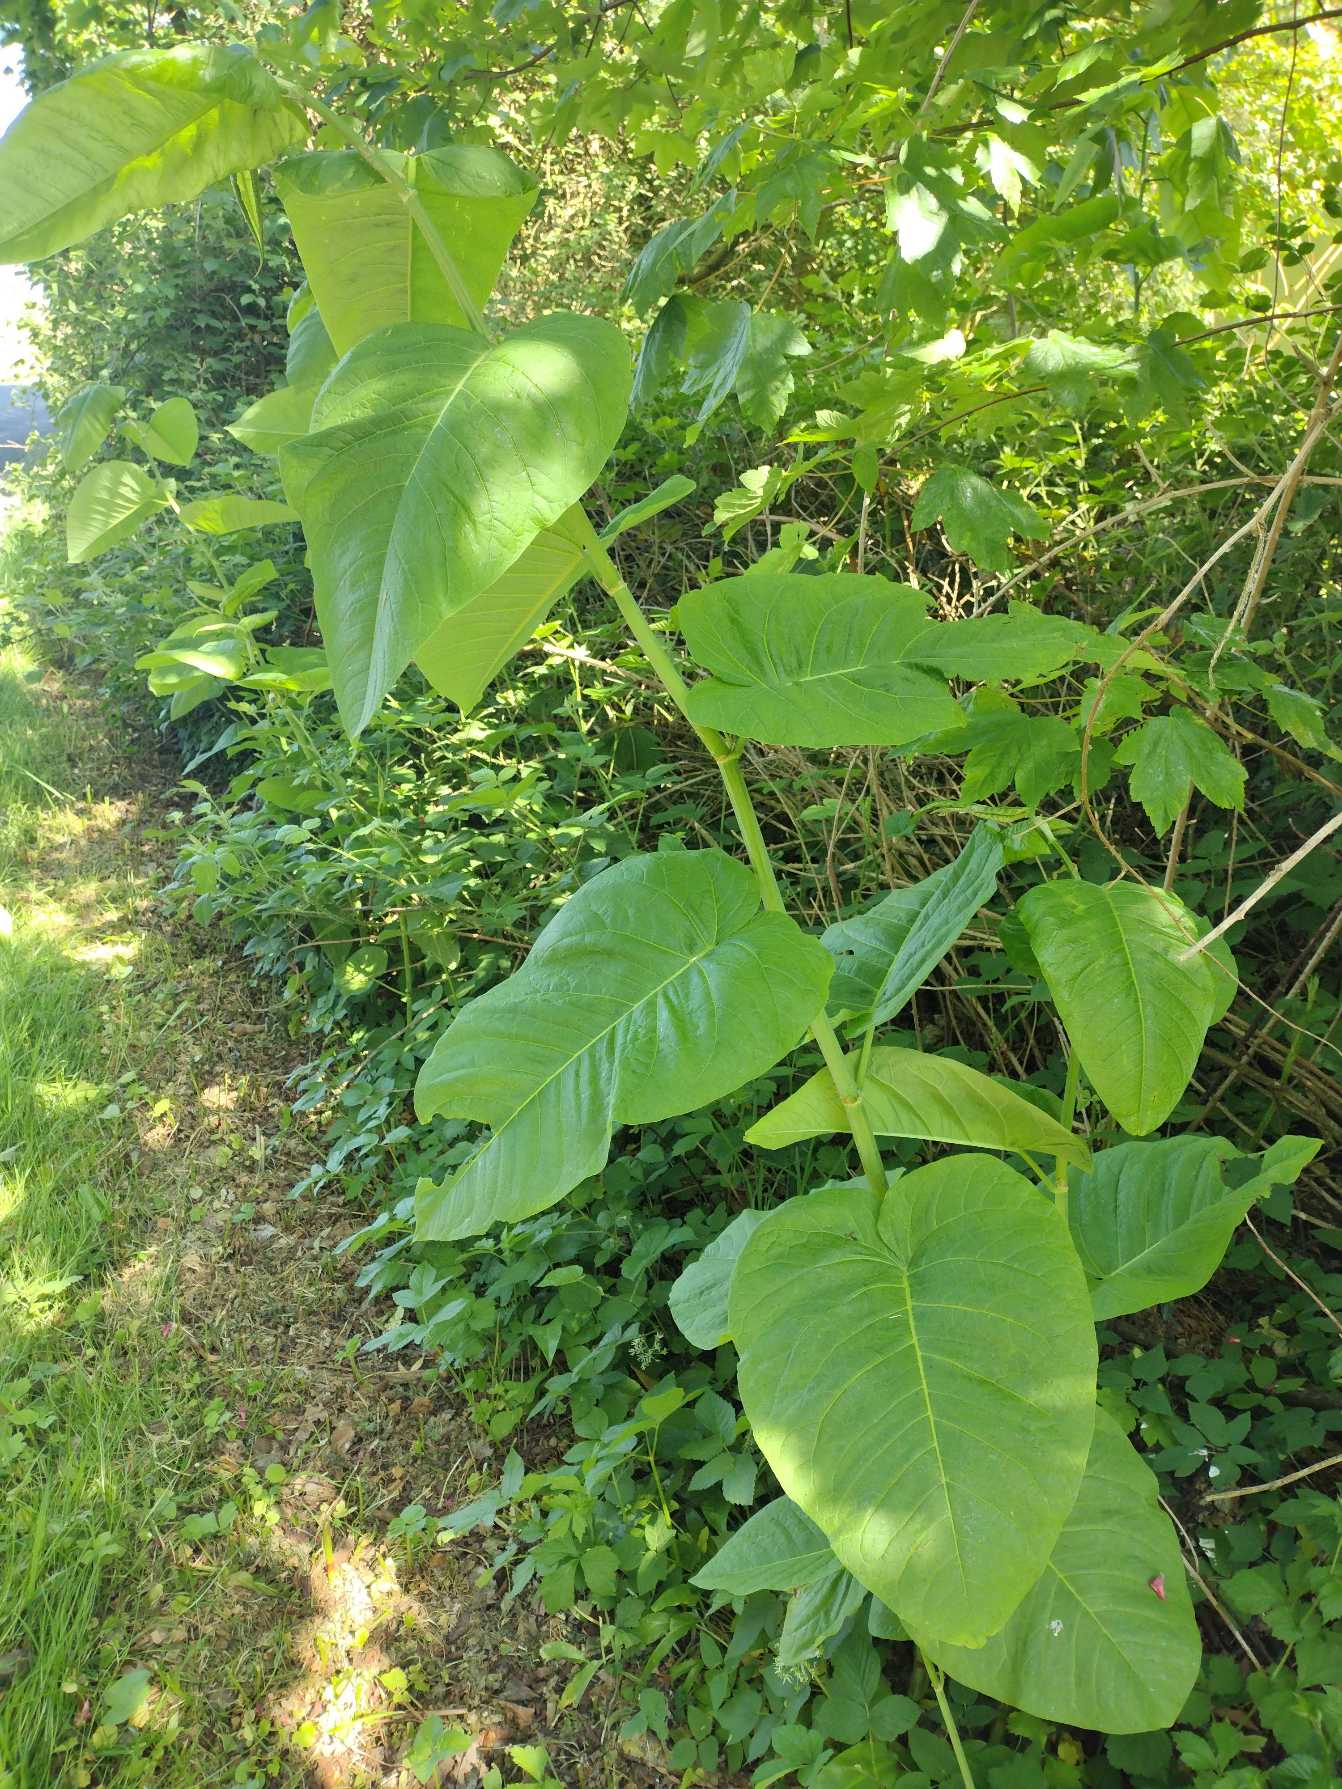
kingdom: Plantae
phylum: Tracheophyta
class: Magnoliopsida
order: Caryophyllales
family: Polygonaceae
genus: Reynoutria
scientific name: Reynoutria sachalinensis
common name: Kæmpe-pileurt
